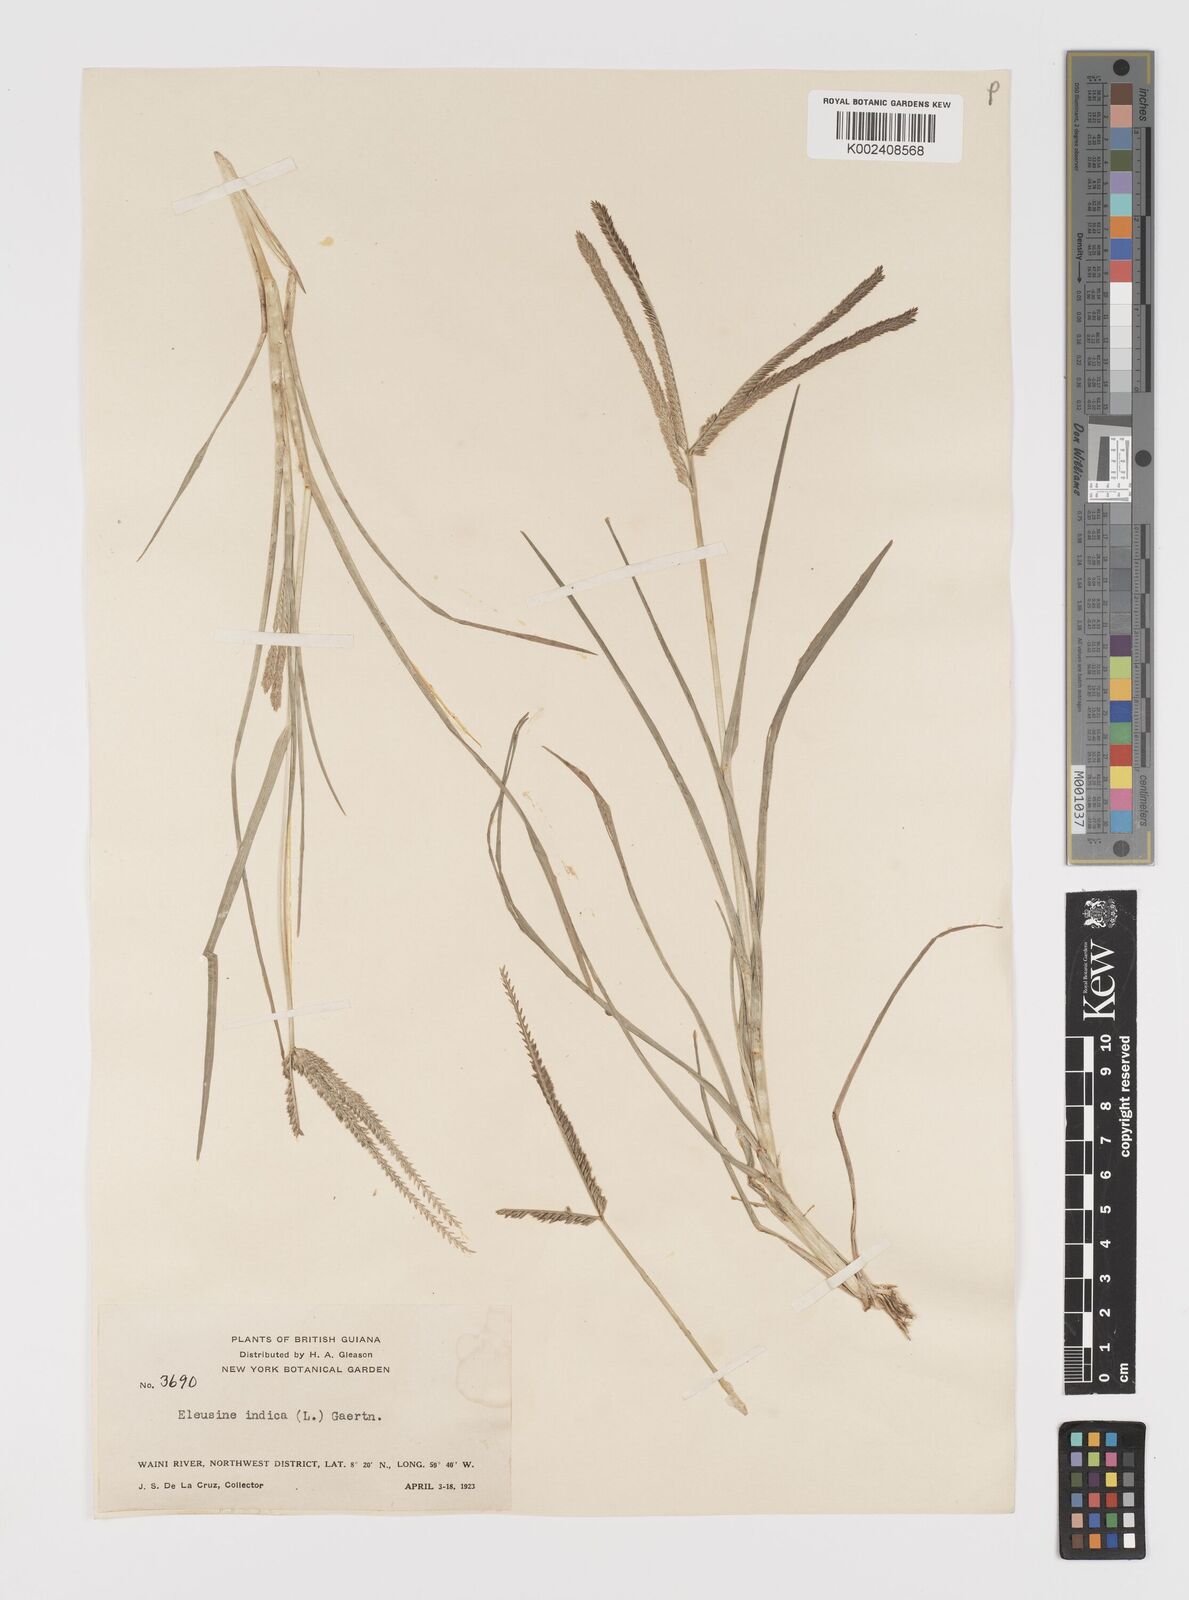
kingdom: Plantae
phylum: Tracheophyta
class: Liliopsida
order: Poales
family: Poaceae
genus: Eleusine
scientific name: Eleusine indica
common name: Yard-grass
